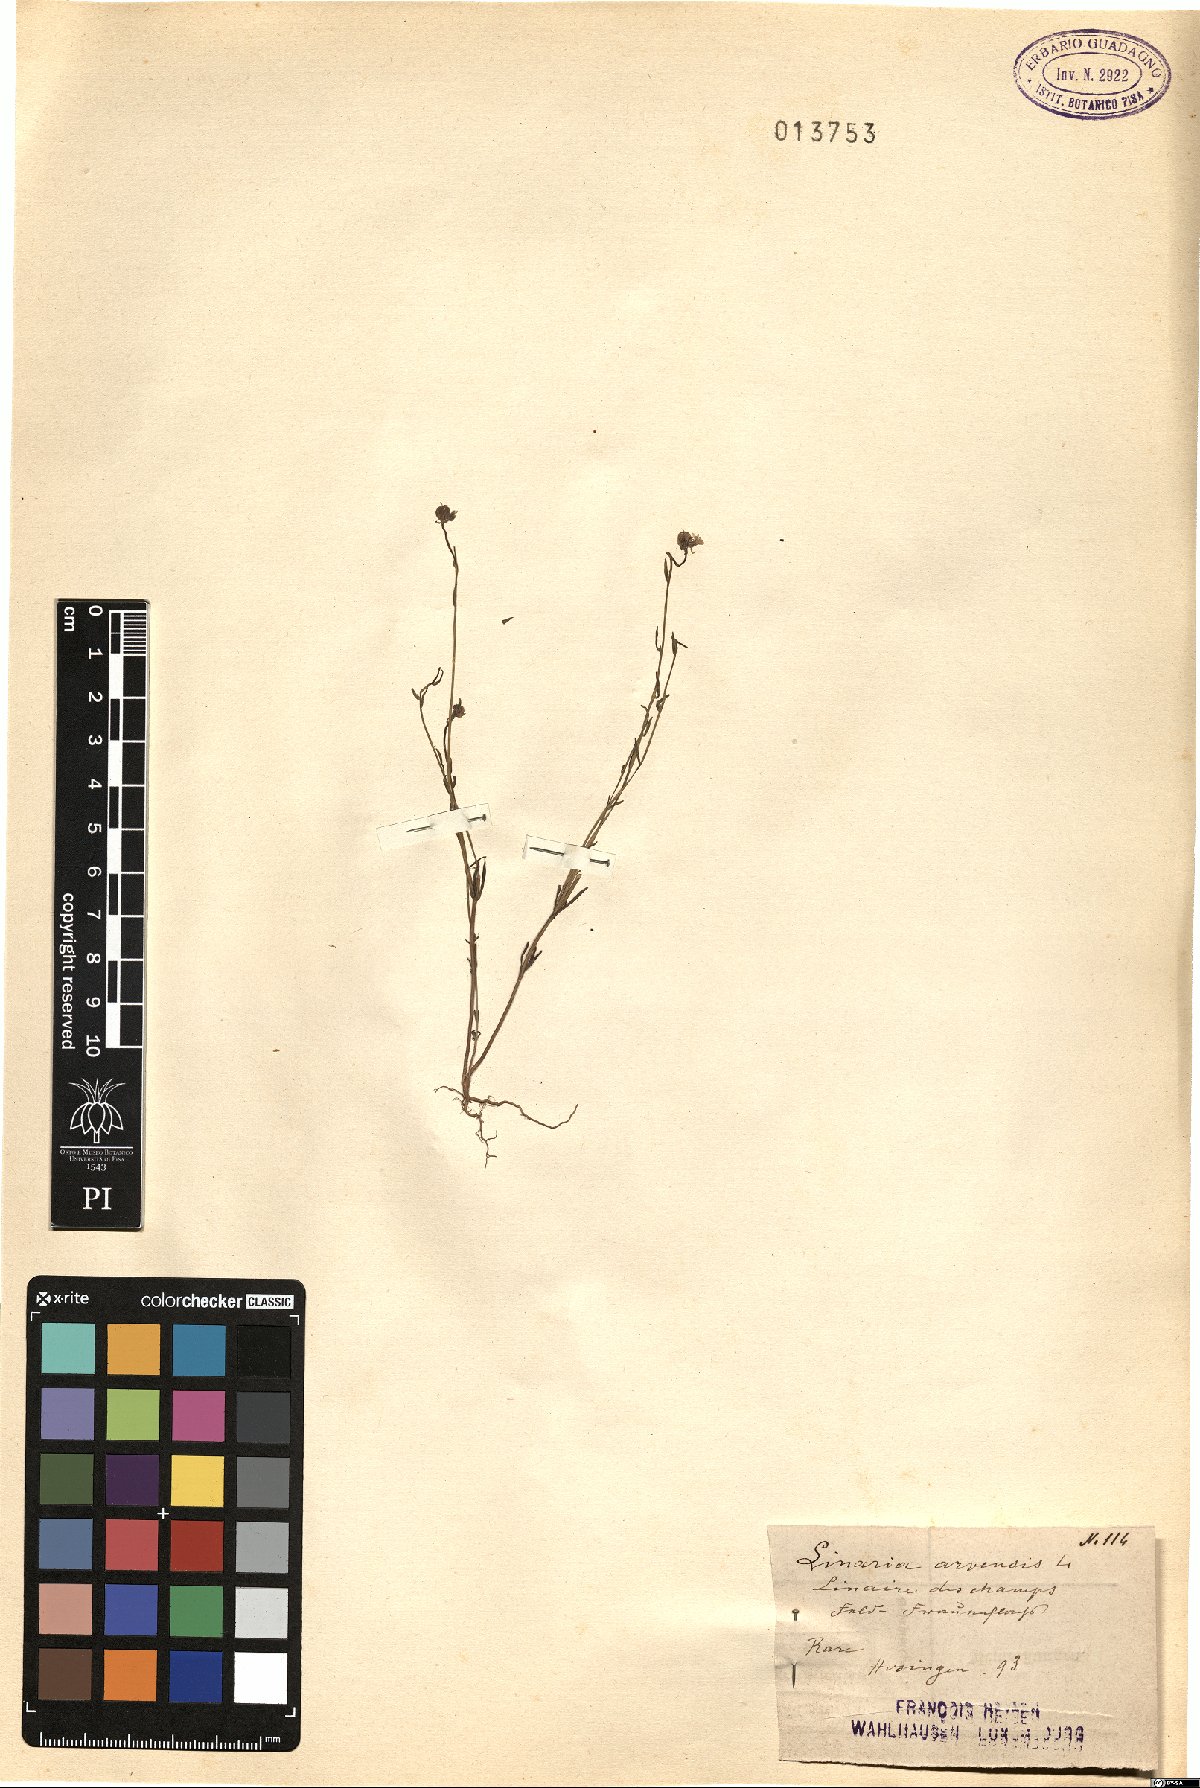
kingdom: Plantae
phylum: Tracheophyta
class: Magnoliopsida
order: Lamiales
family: Plantaginaceae
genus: Linaria
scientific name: Linaria arvensis
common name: Corn toadflax
